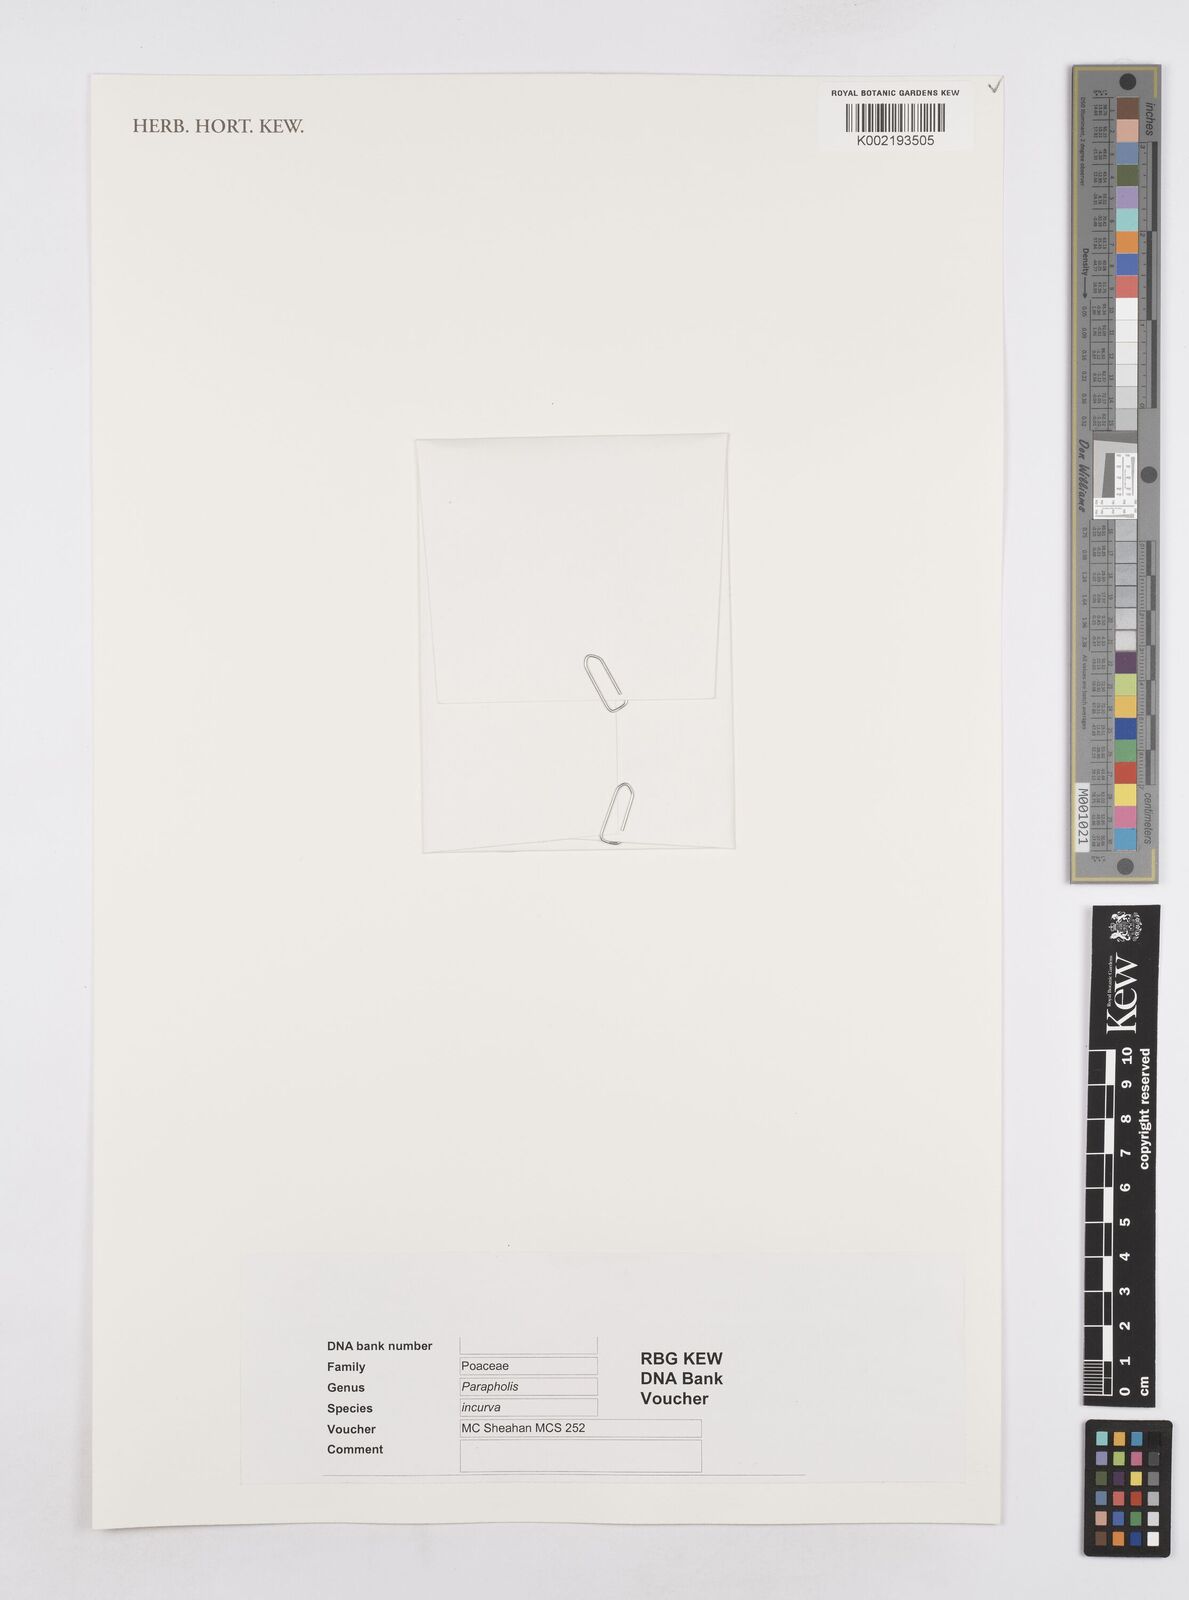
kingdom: Plantae
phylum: Tracheophyta
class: Liliopsida
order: Poales
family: Poaceae
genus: Parapholis
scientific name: Parapholis incurva
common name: Curved sicklegrass
